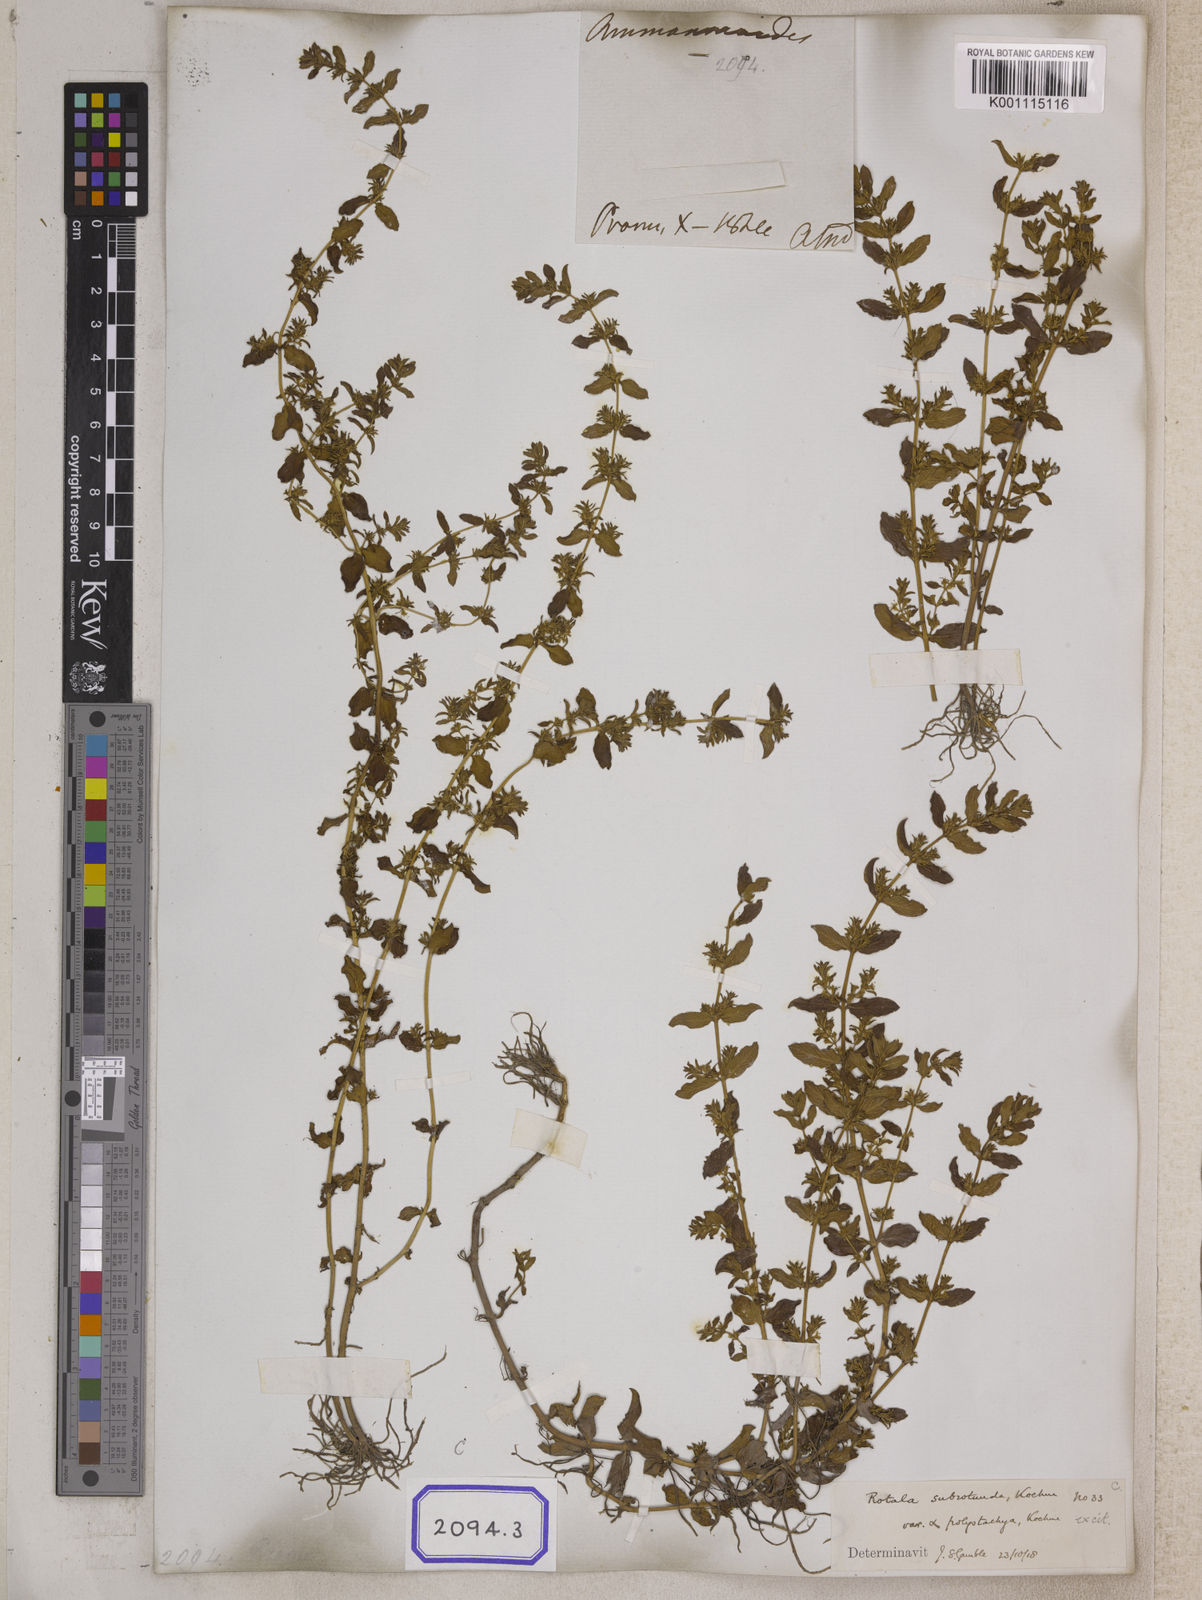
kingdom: Plantae
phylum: Tracheophyta
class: Magnoliopsida
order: Myrtales
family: Lythraceae
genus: Ammannia
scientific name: Ammannia
